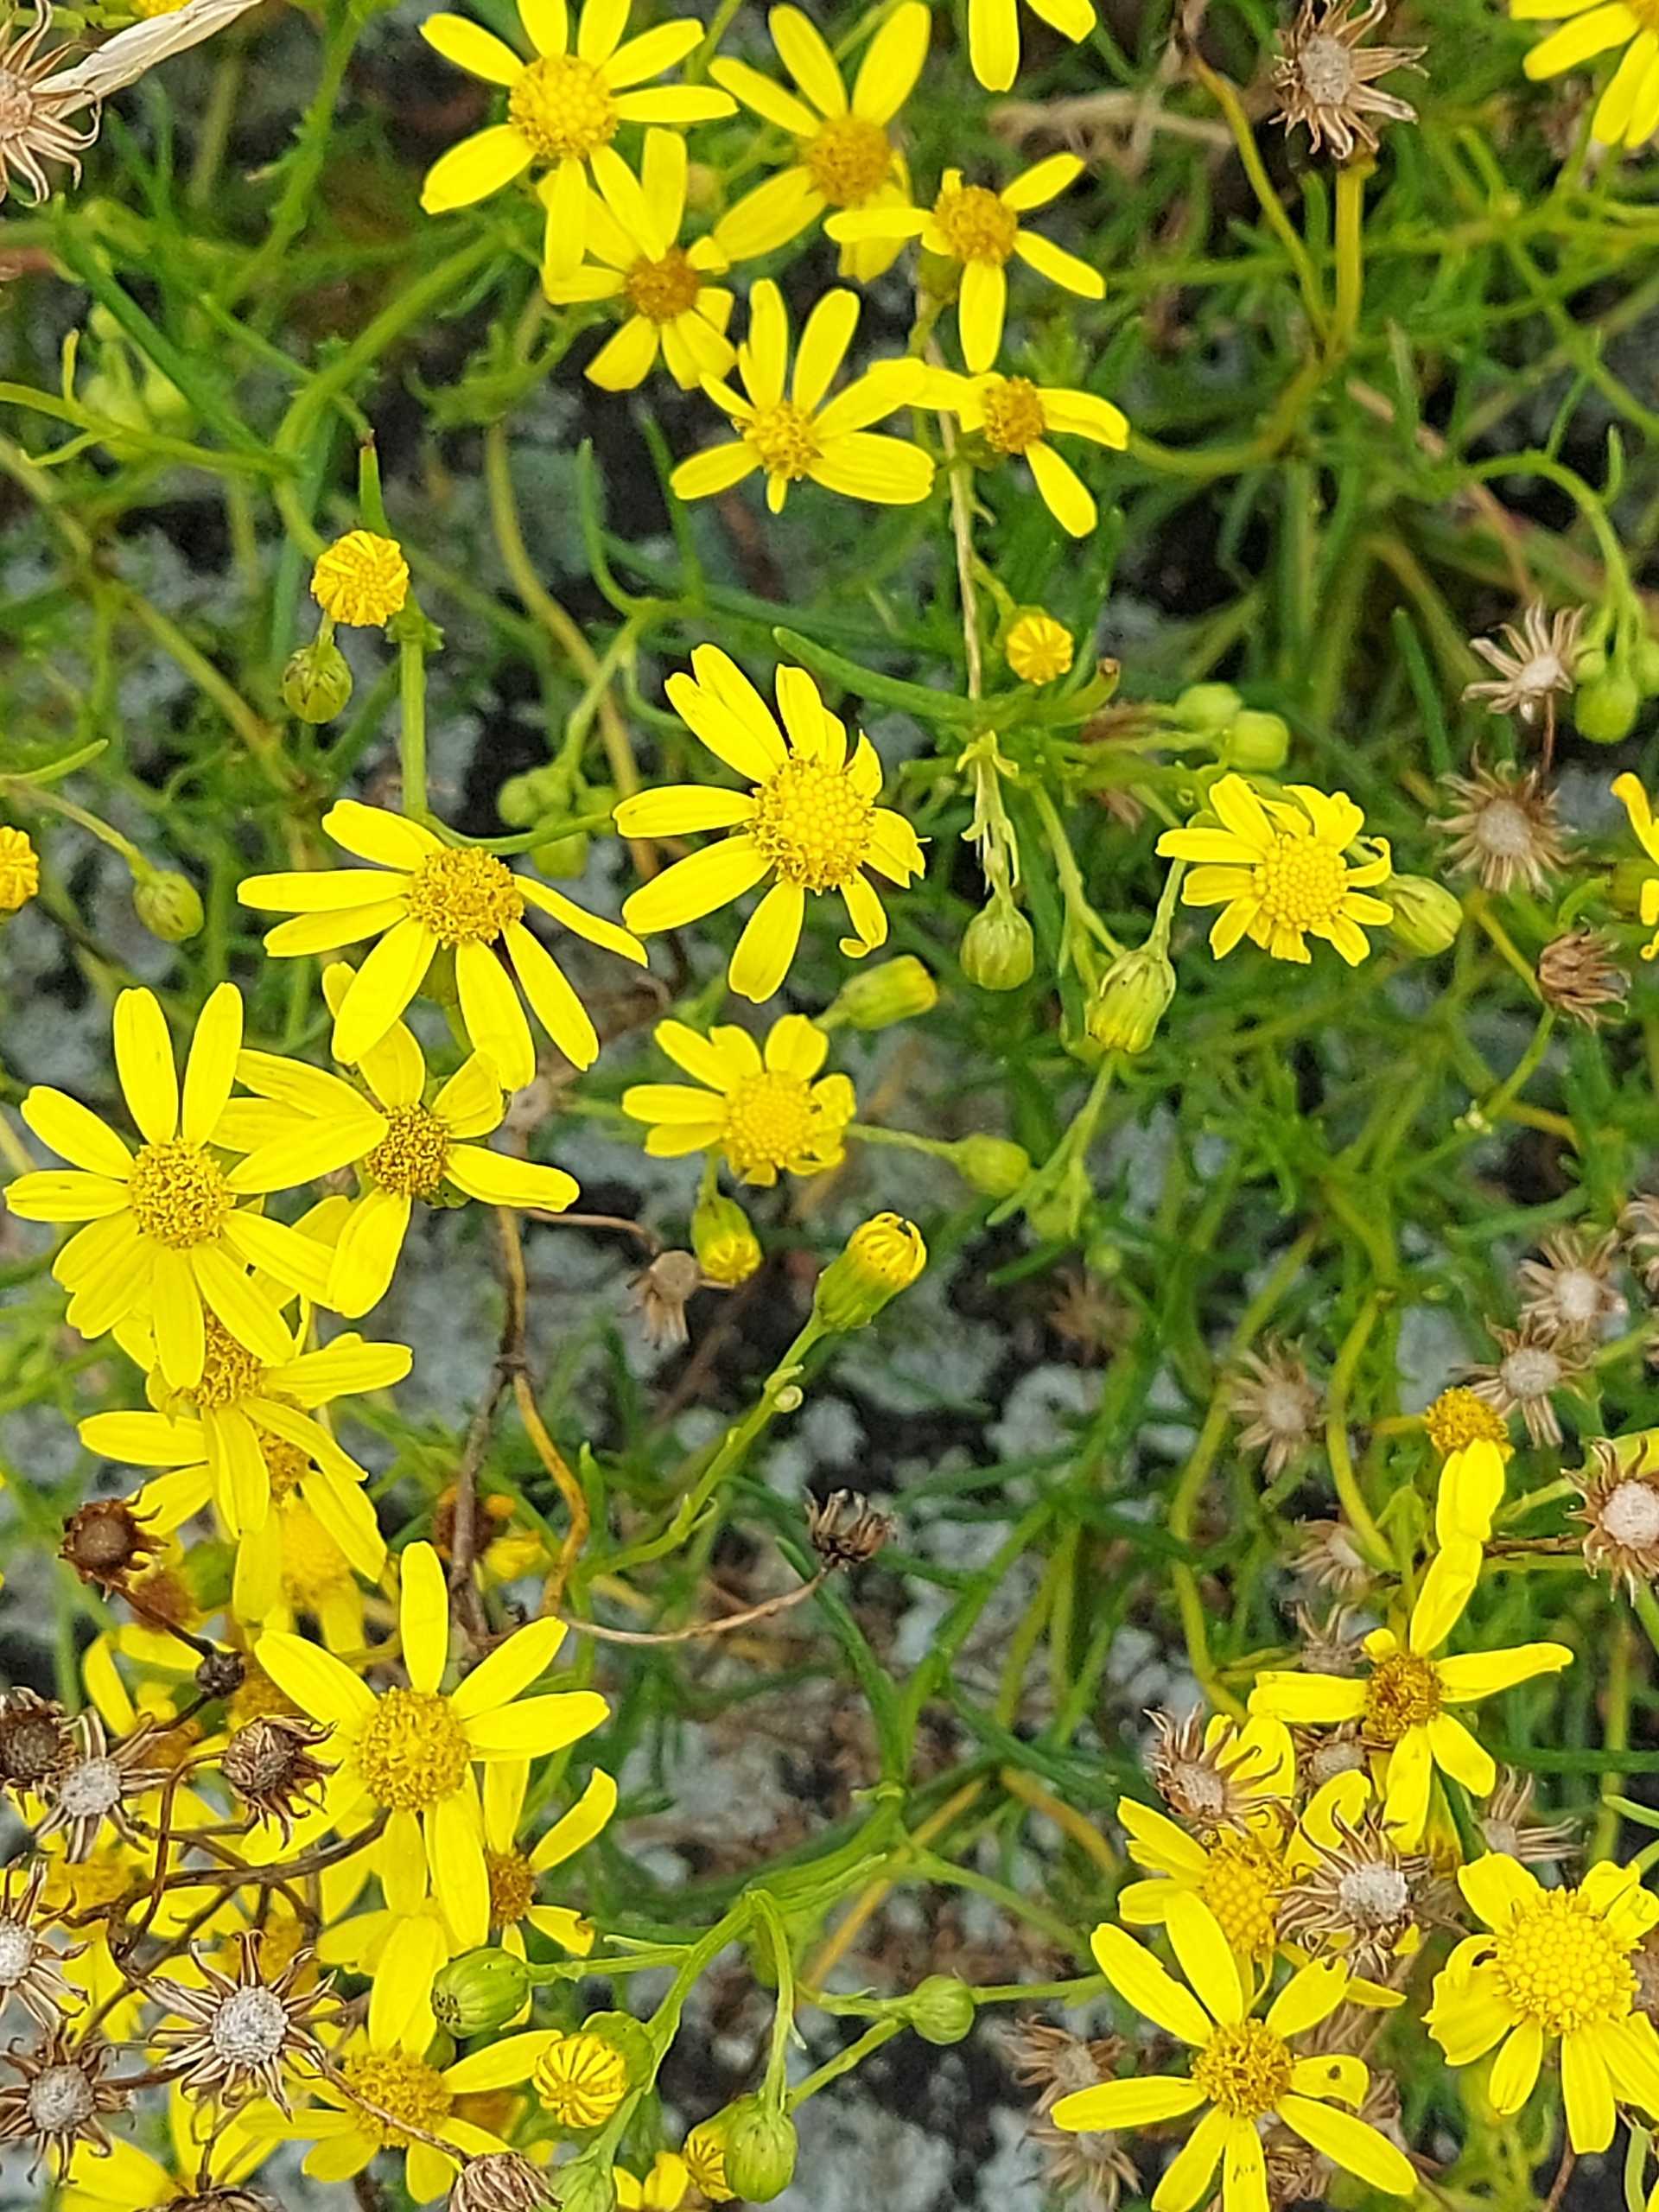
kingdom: Plantae
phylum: Tracheophyta
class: Magnoliopsida
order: Asterales
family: Asteraceae
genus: Senecio
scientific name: Senecio inaequidens
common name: Smalbladet brandbæger
